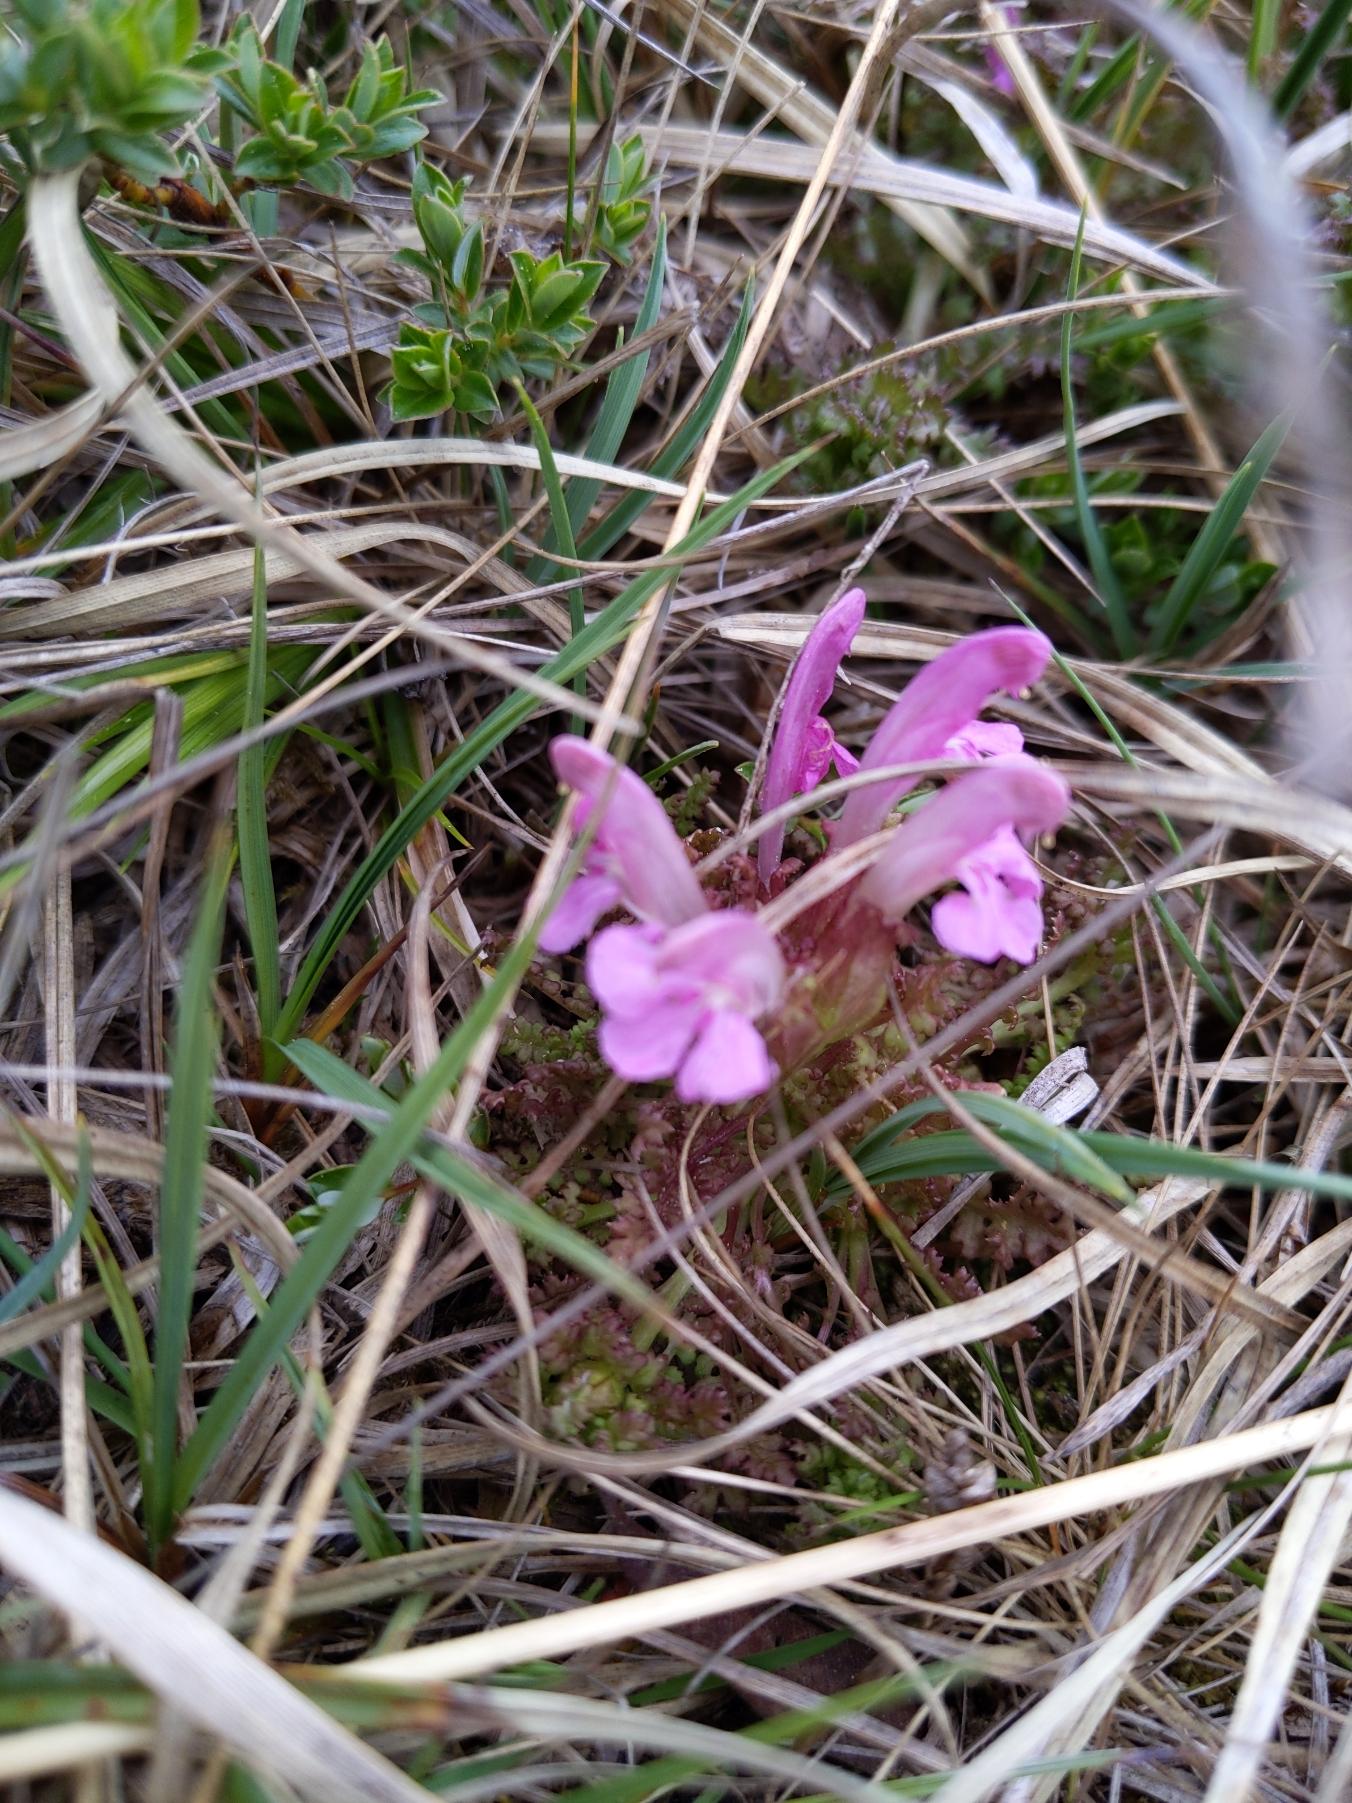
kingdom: Plantae
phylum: Tracheophyta
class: Magnoliopsida
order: Lamiales
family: Orobanchaceae
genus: Pedicularis
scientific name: Pedicularis sylvatica
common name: Mose-troldurt
